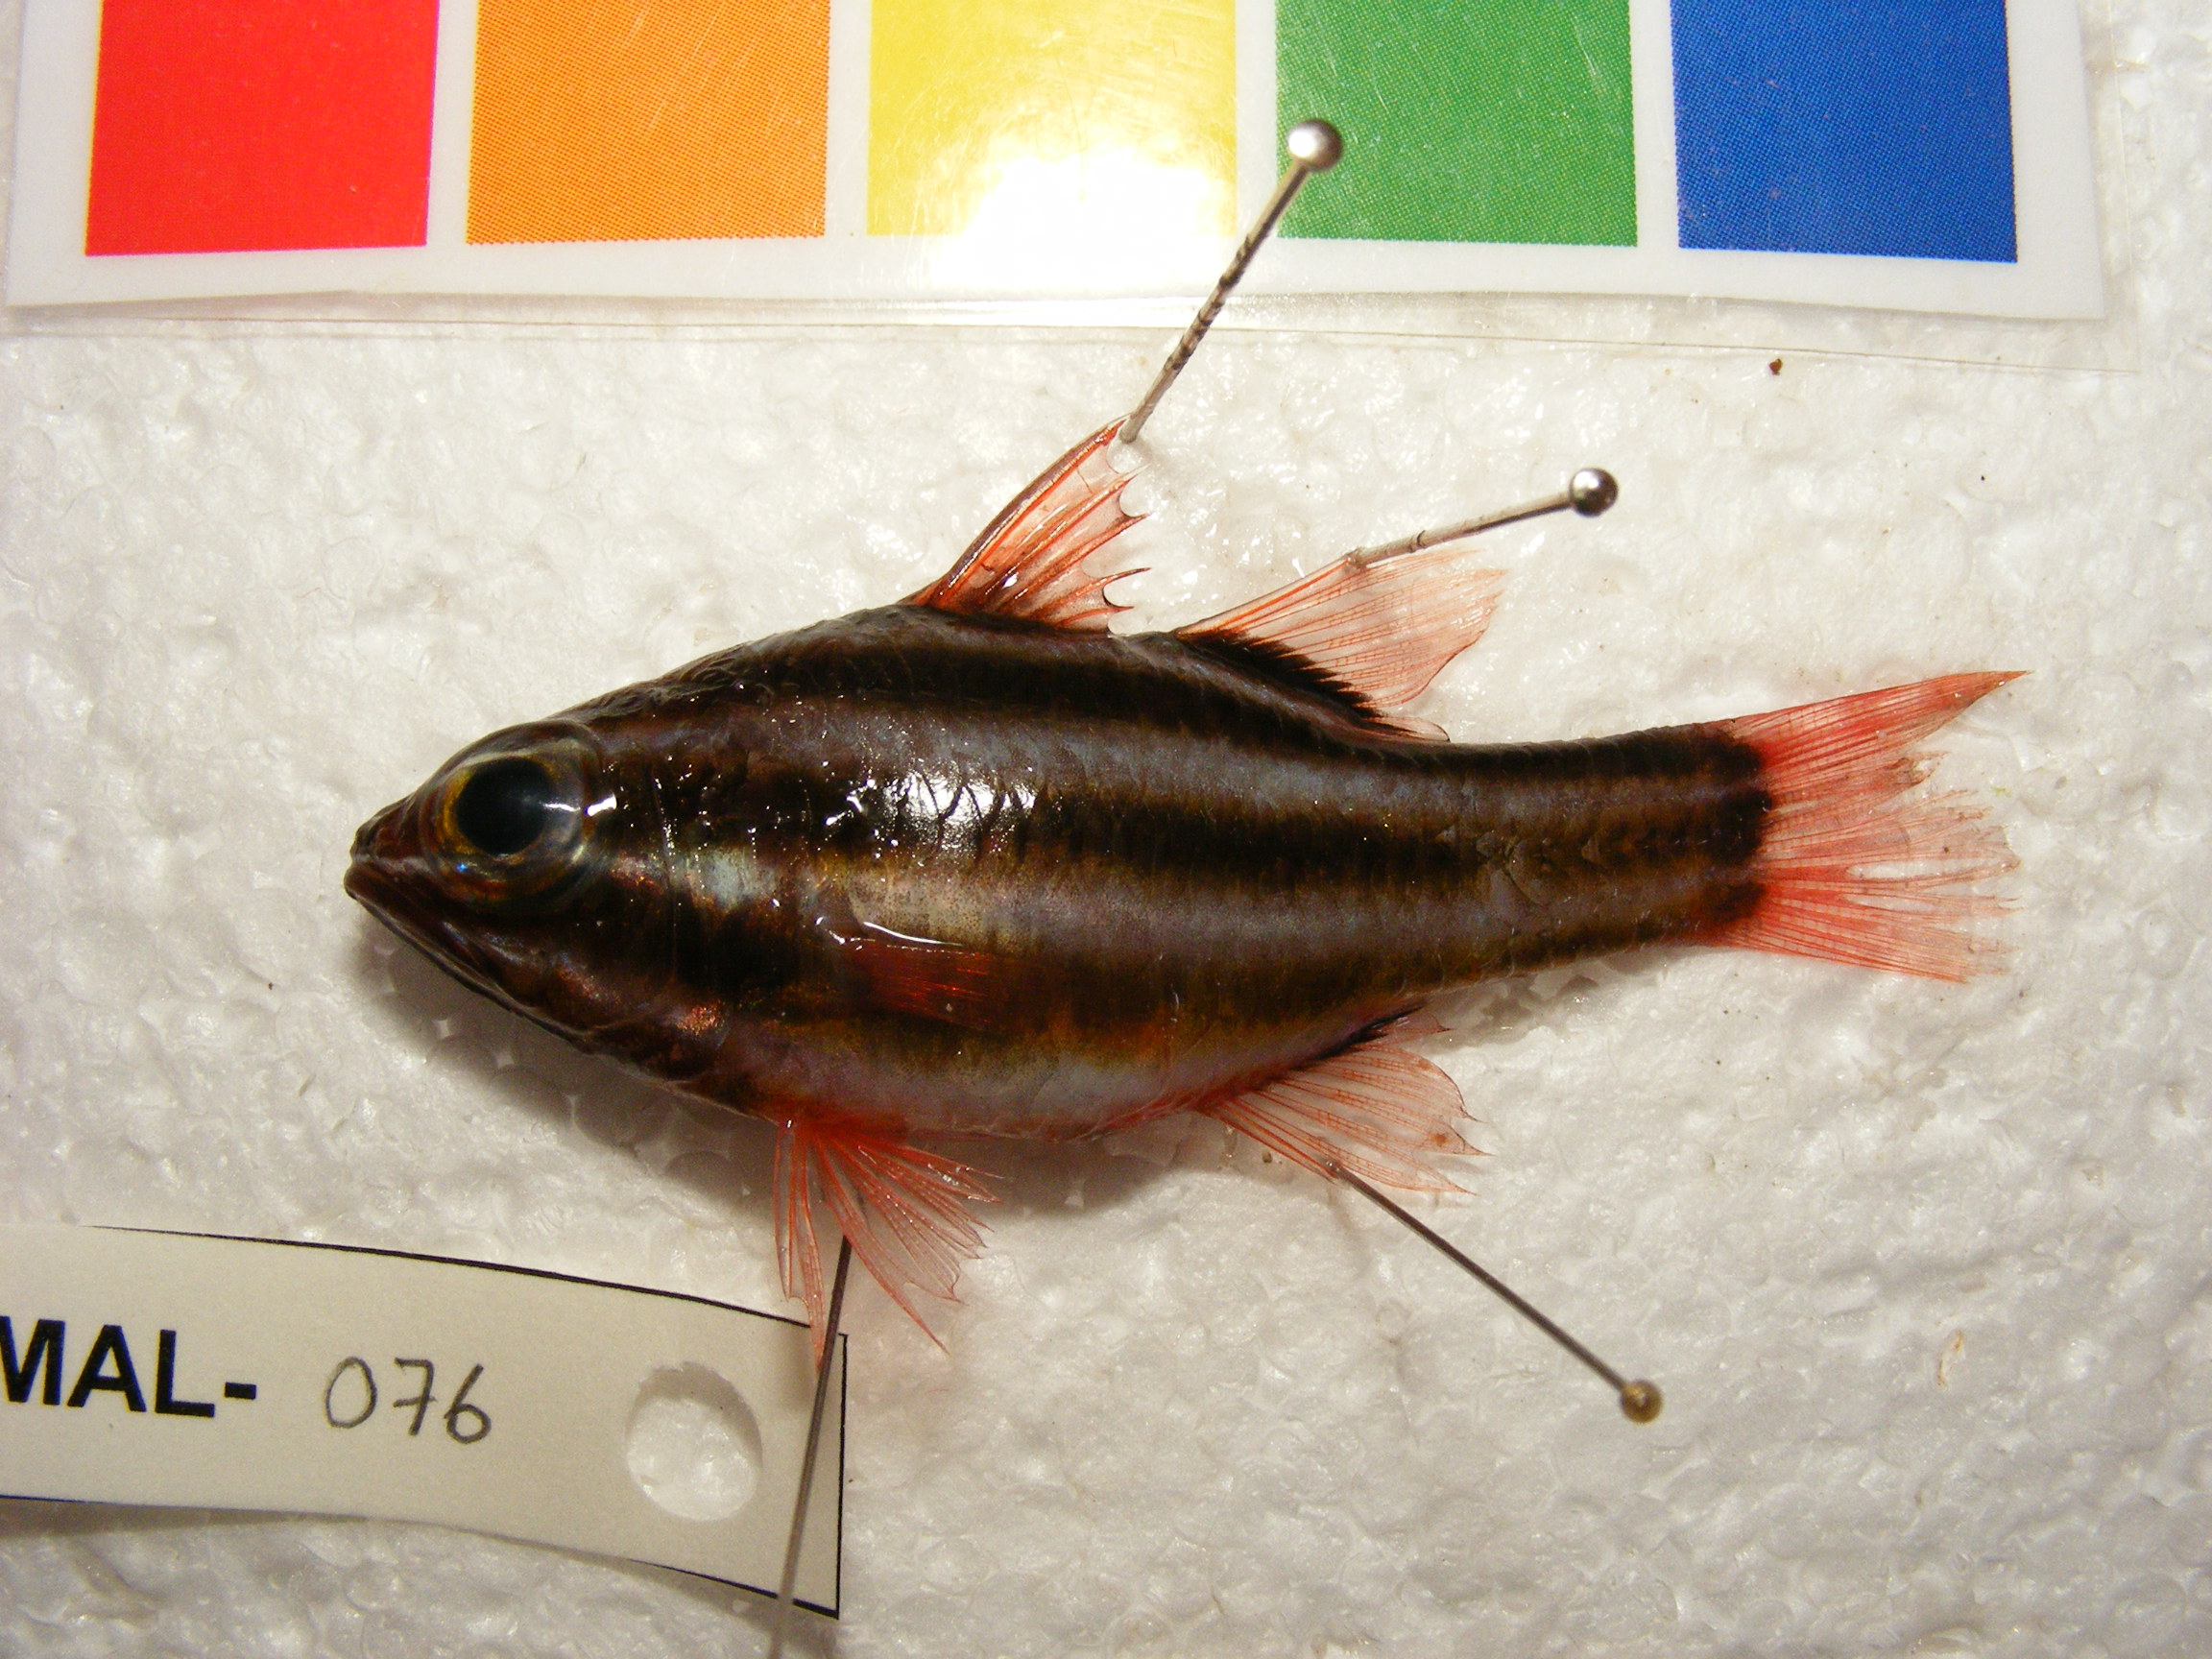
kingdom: Animalia
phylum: Chordata
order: Perciformes
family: Apogonidae
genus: Ostorhinchus
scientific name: Ostorhinchus nigrofasciatus
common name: Blackstripe cardinalfish
